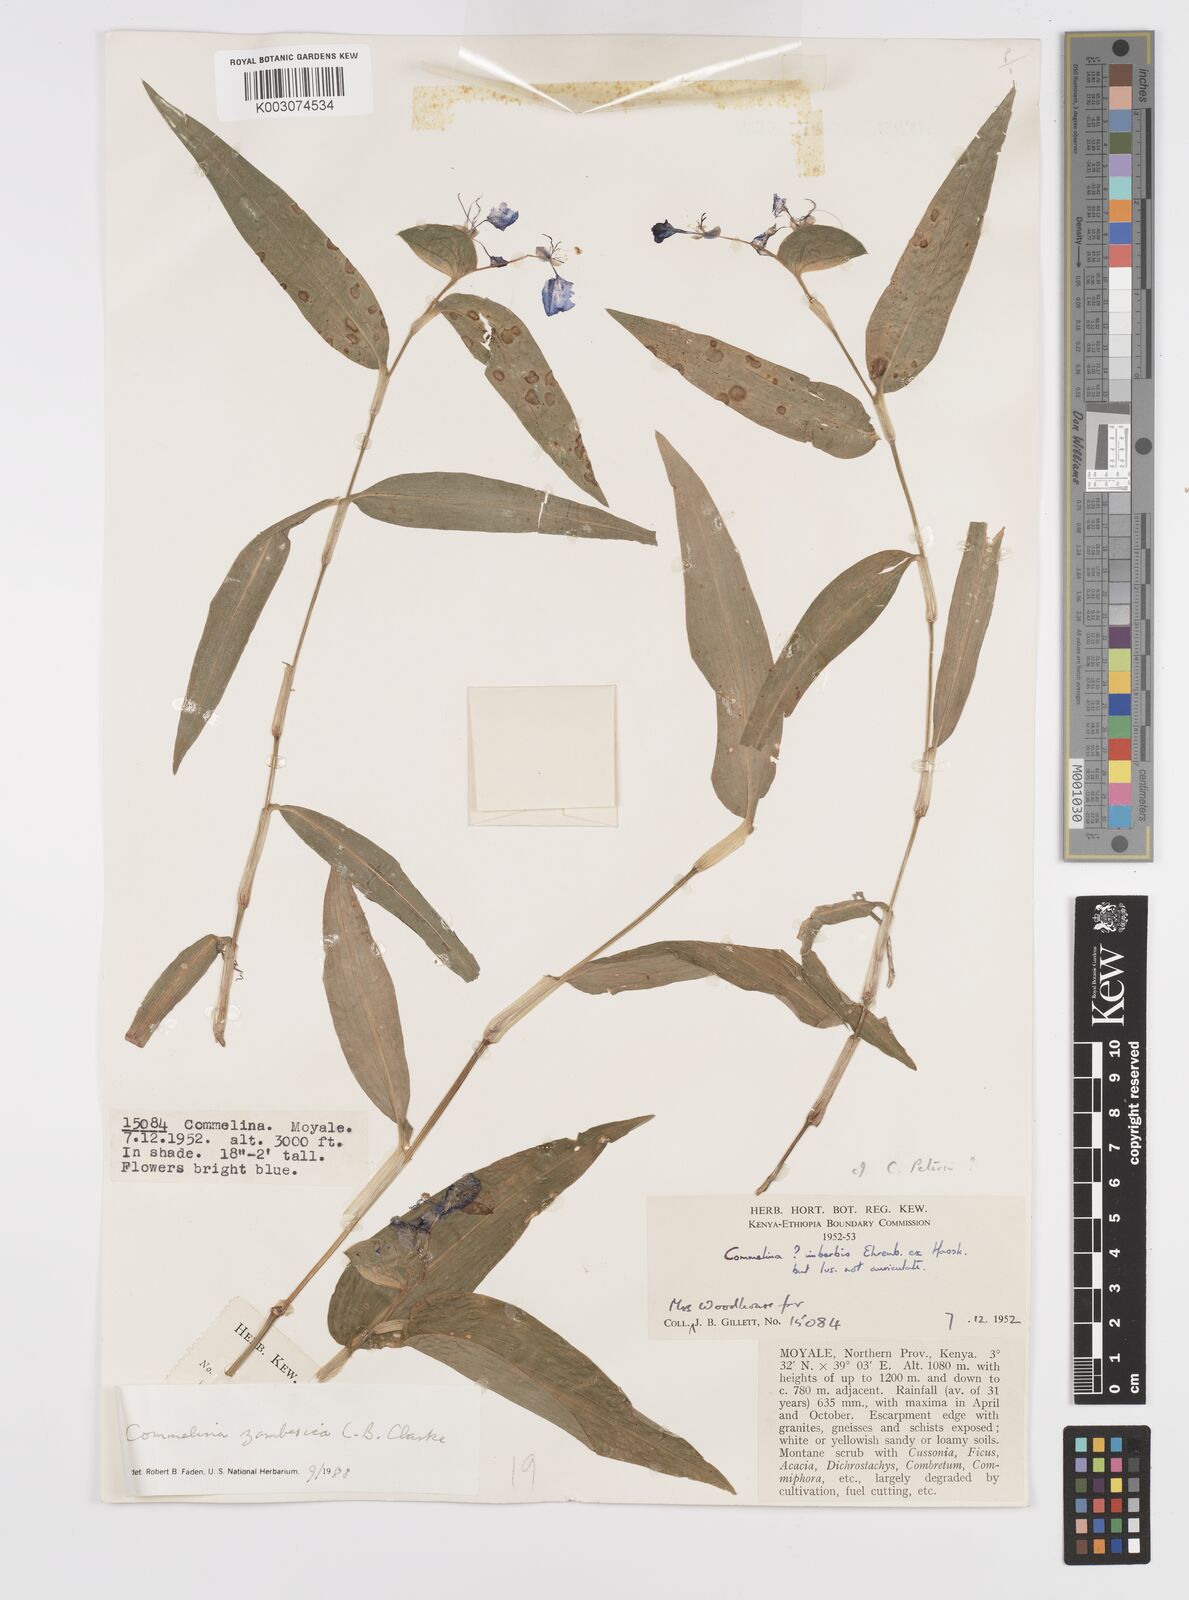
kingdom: Plantae
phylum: Tracheophyta
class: Liliopsida
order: Commelinales
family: Commelinaceae
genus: Commelina
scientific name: Commelina zambesica
